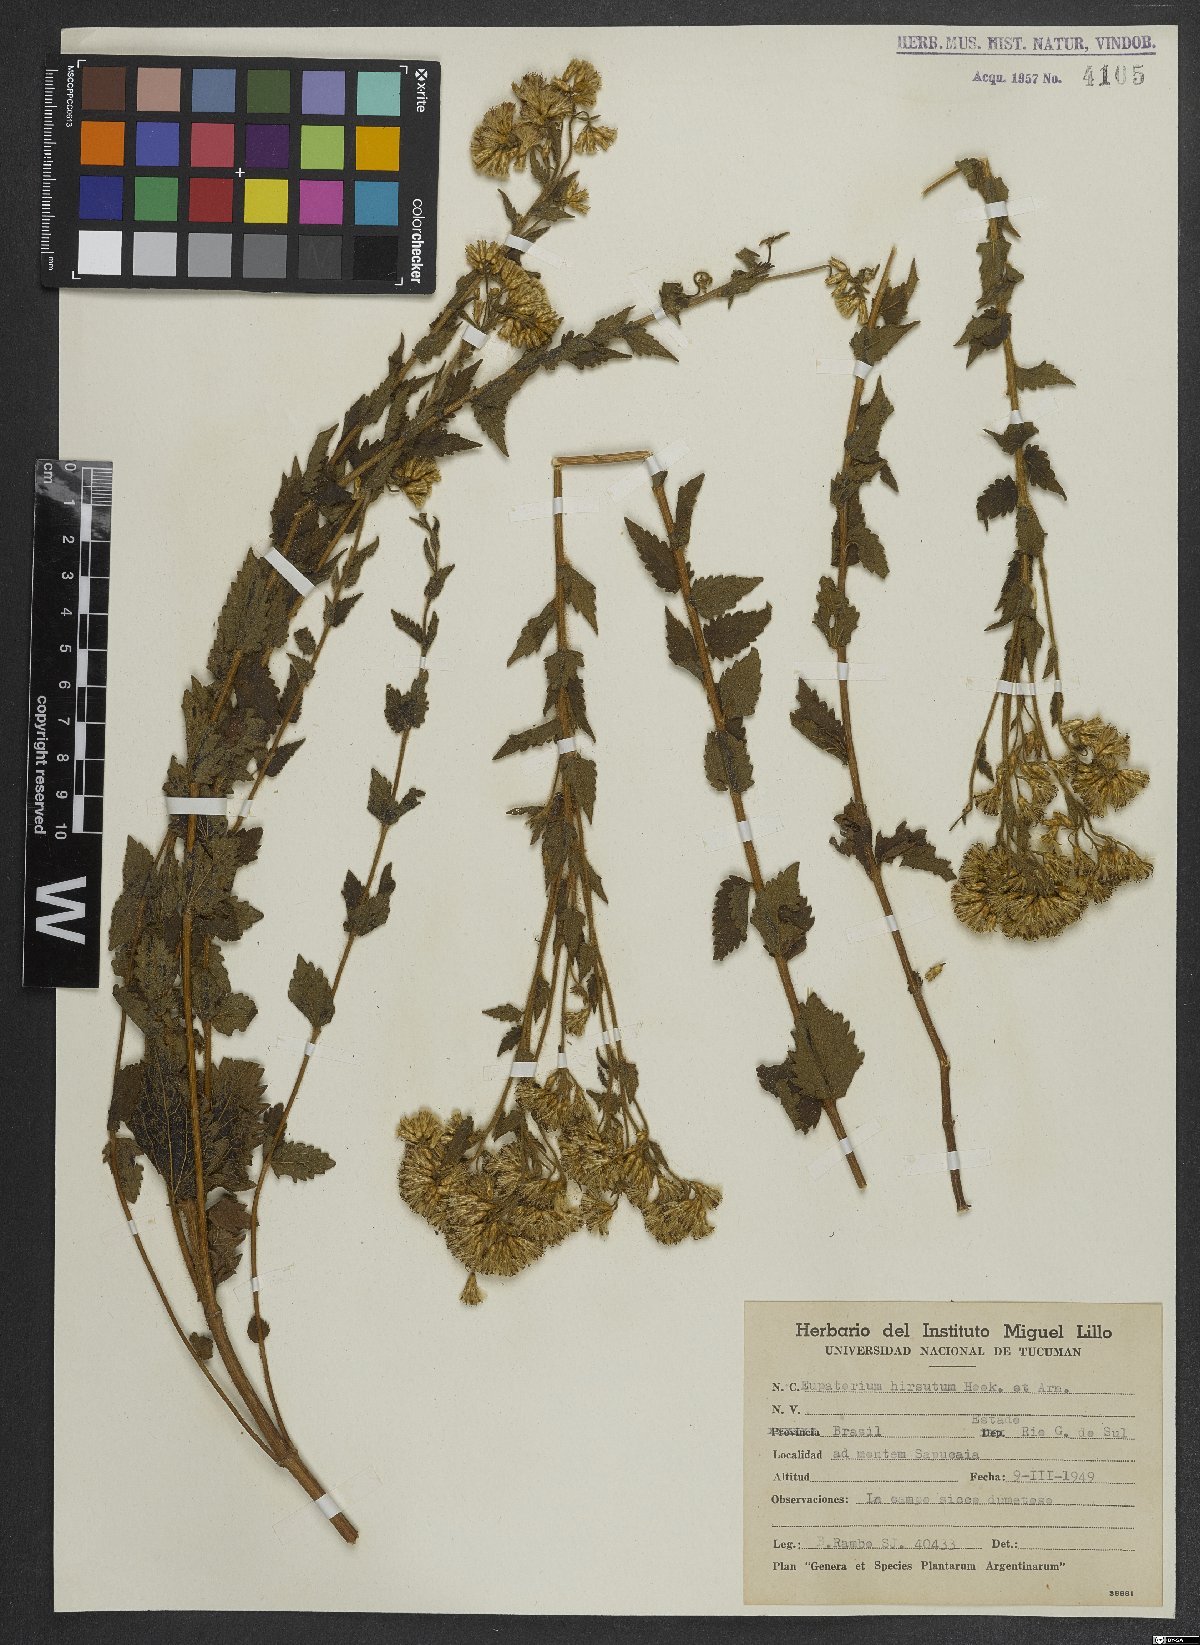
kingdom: Plantae
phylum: Tracheophyta
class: Magnoliopsida
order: Asterales
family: Asteraceae
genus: Campuloclinium
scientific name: Campuloclinium hirsutum
